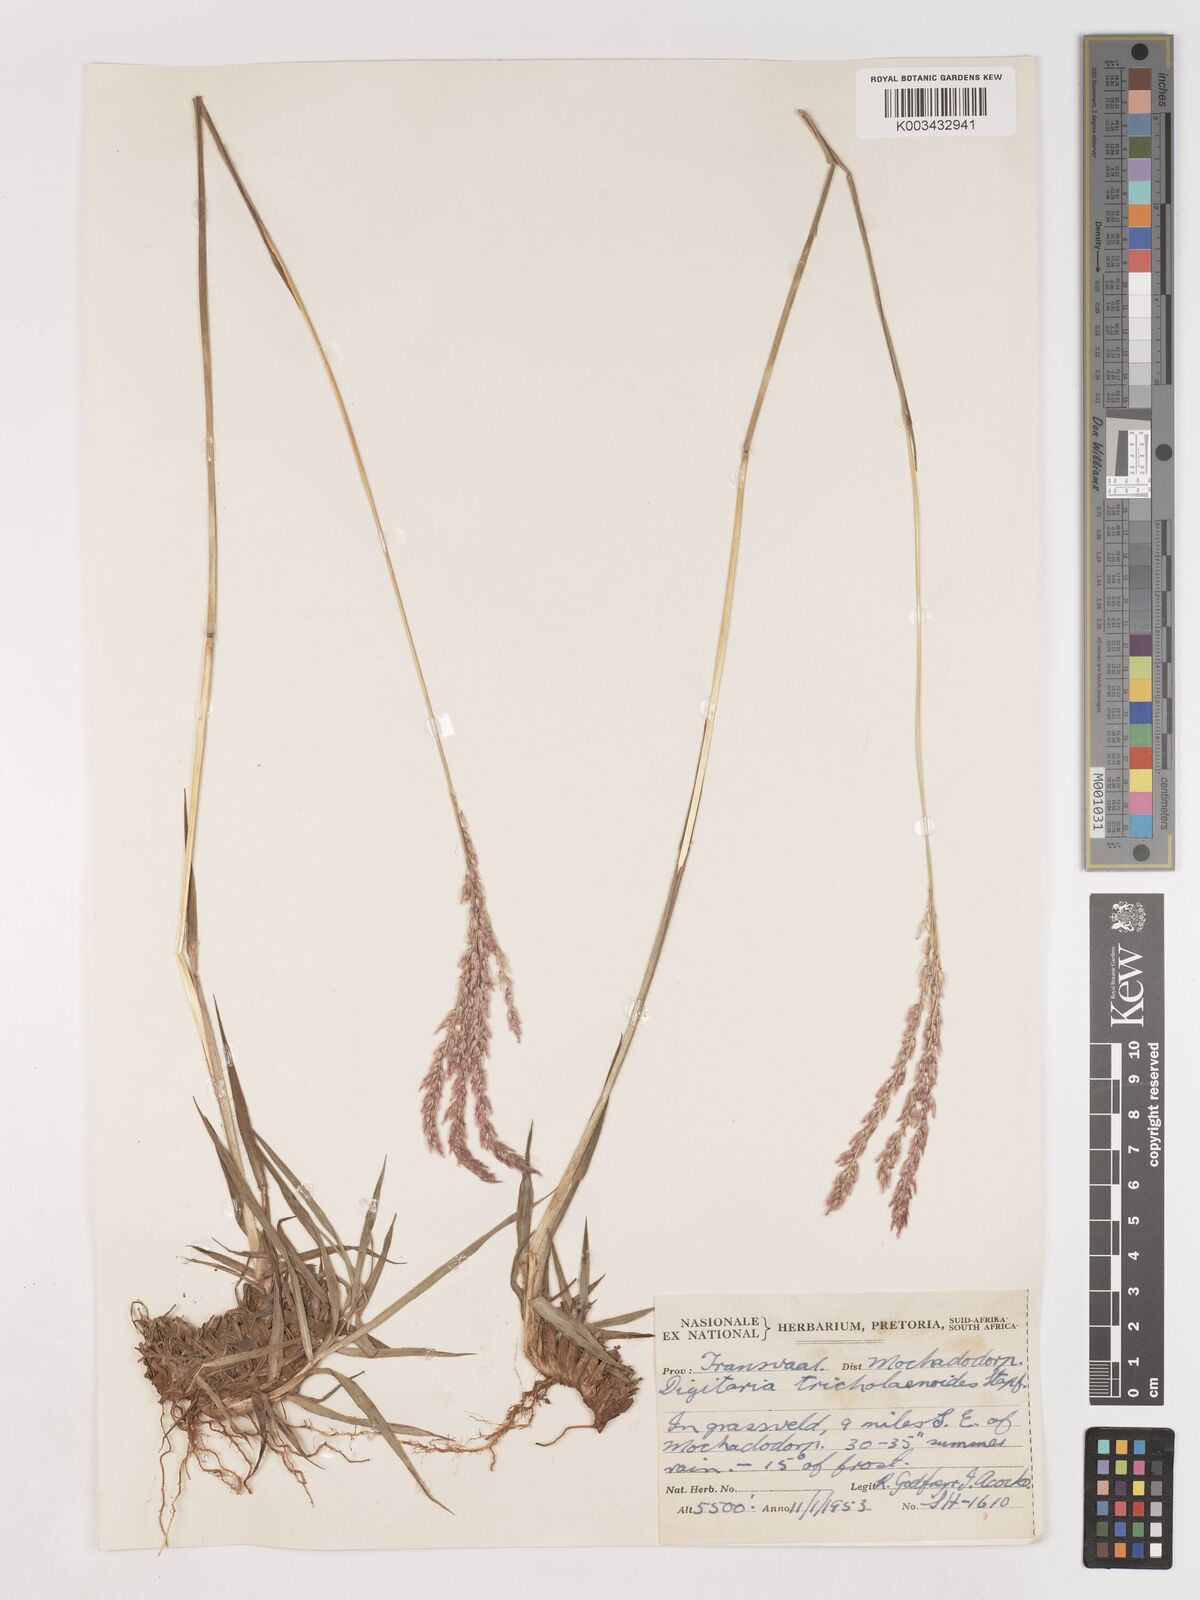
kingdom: Plantae
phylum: Tracheophyta
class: Liliopsida
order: Poales
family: Poaceae
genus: Digitaria
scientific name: Digitaria tricholaenoides
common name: Purple finger grass
